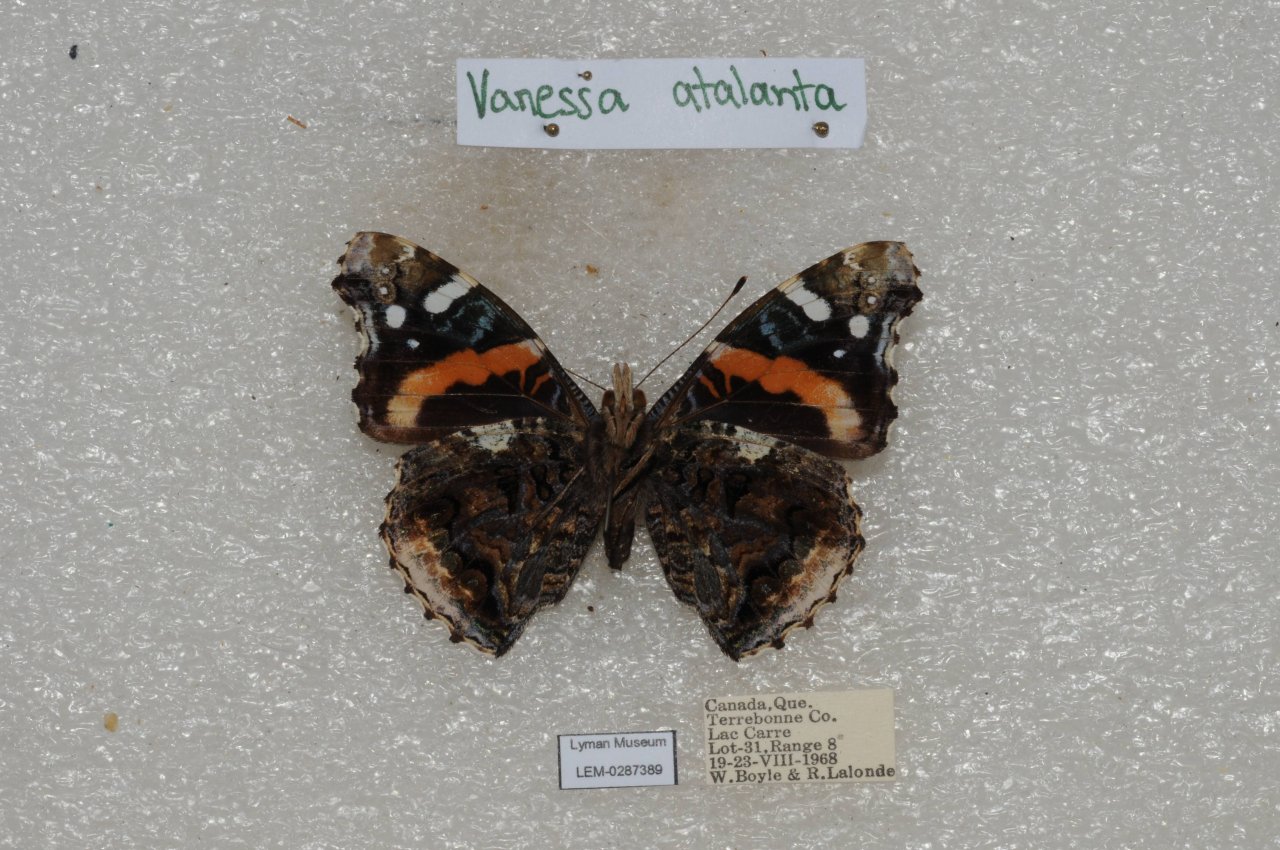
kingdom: Animalia
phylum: Arthropoda
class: Insecta
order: Lepidoptera
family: Nymphalidae
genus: Vanessa
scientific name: Vanessa atalanta
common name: Red Admiral
